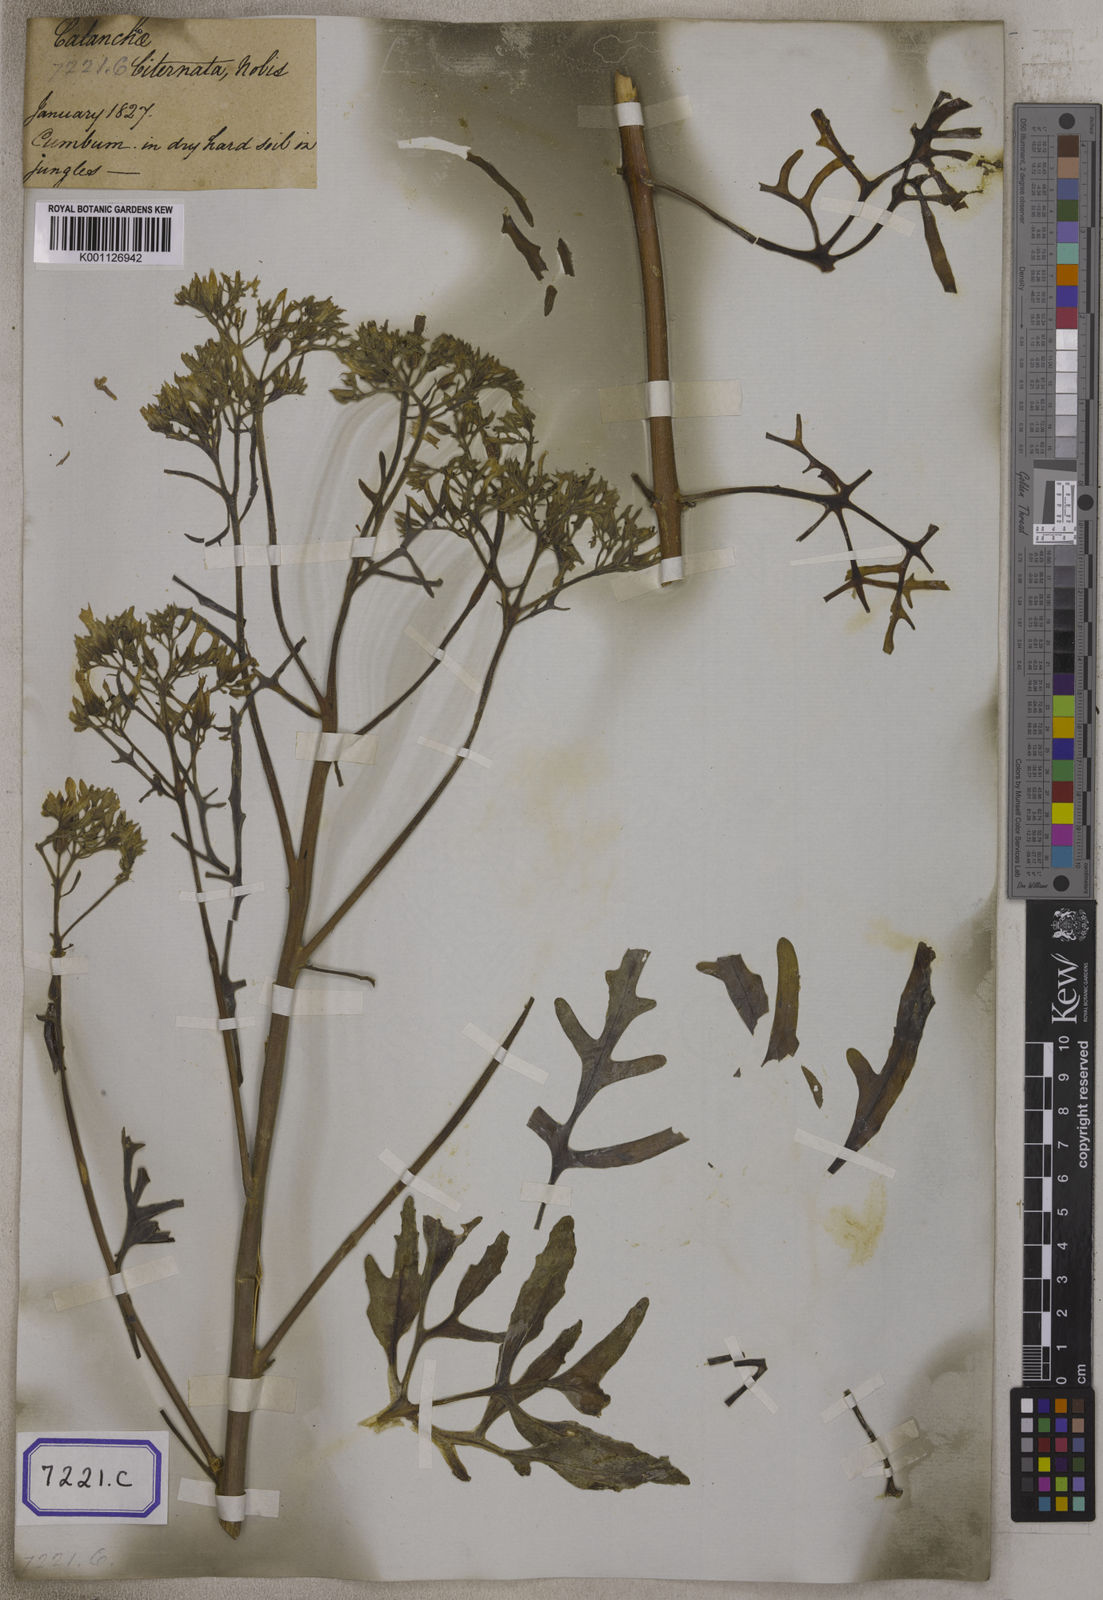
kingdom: Plantae
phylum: Tracheophyta
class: Magnoliopsida
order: Saxifragales
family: Crassulaceae
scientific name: Crassulaceae
